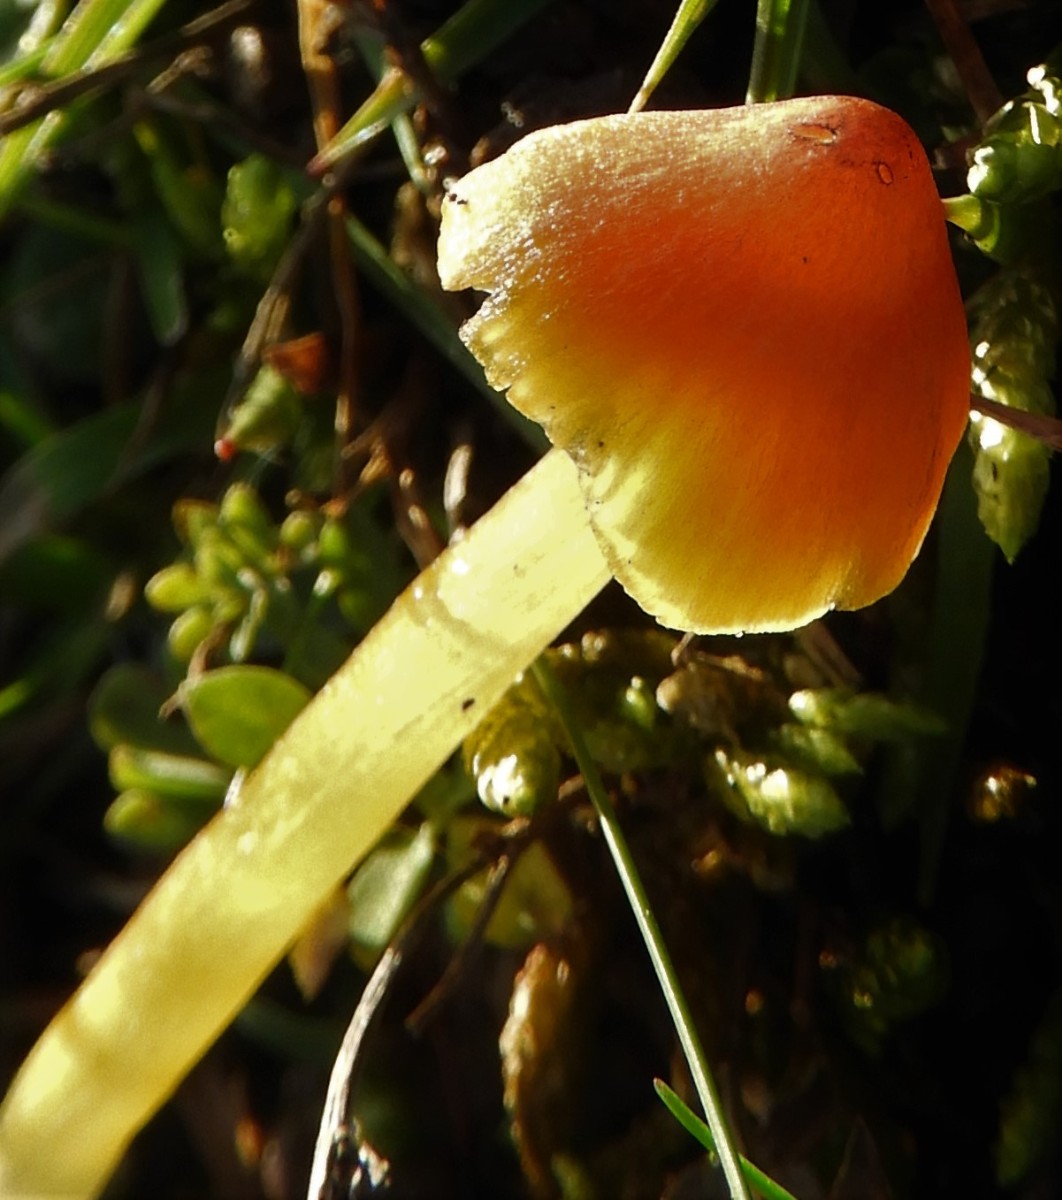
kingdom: Fungi
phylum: Basidiomycota
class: Agaricomycetes
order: Agaricales
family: Hygrophoraceae
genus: Hygrocybe
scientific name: Hygrocybe conica
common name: kegle-vokshat
